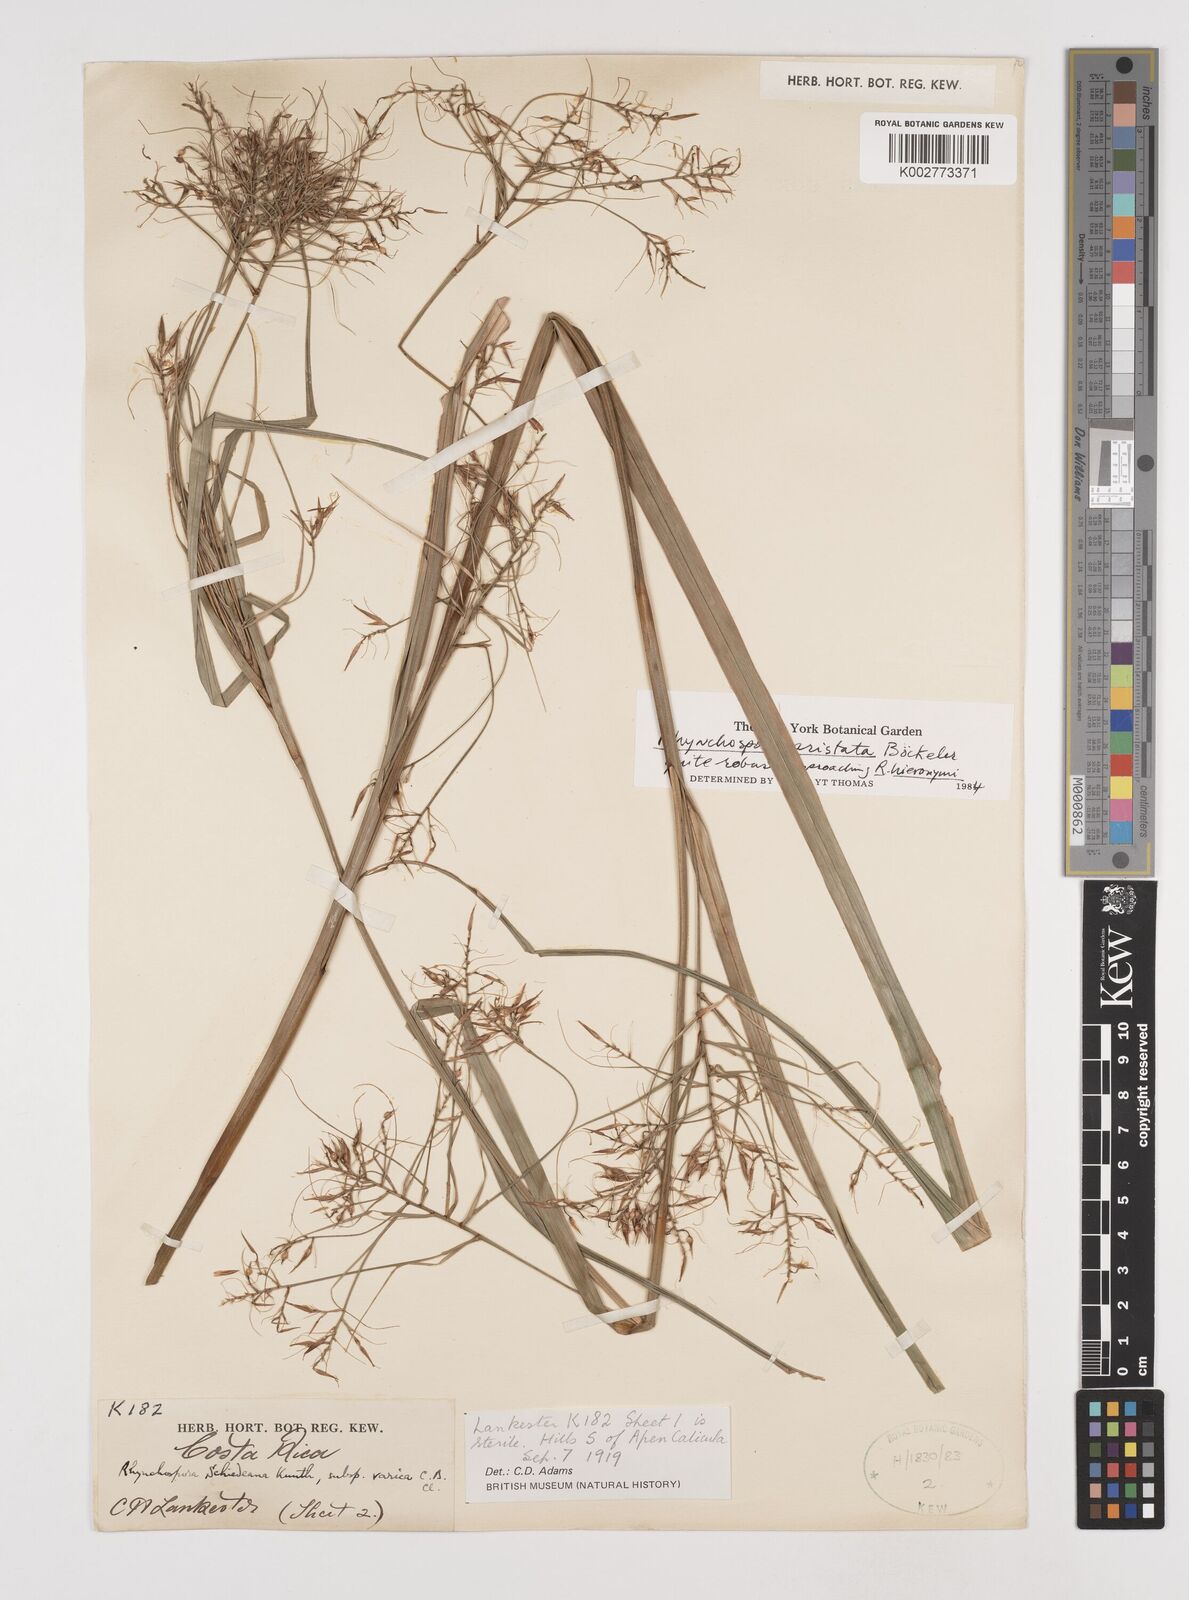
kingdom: Plantae
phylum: Tracheophyta
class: Liliopsida
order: Poales
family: Cyperaceae
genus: Rhynchospora
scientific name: Rhynchospora aristata
